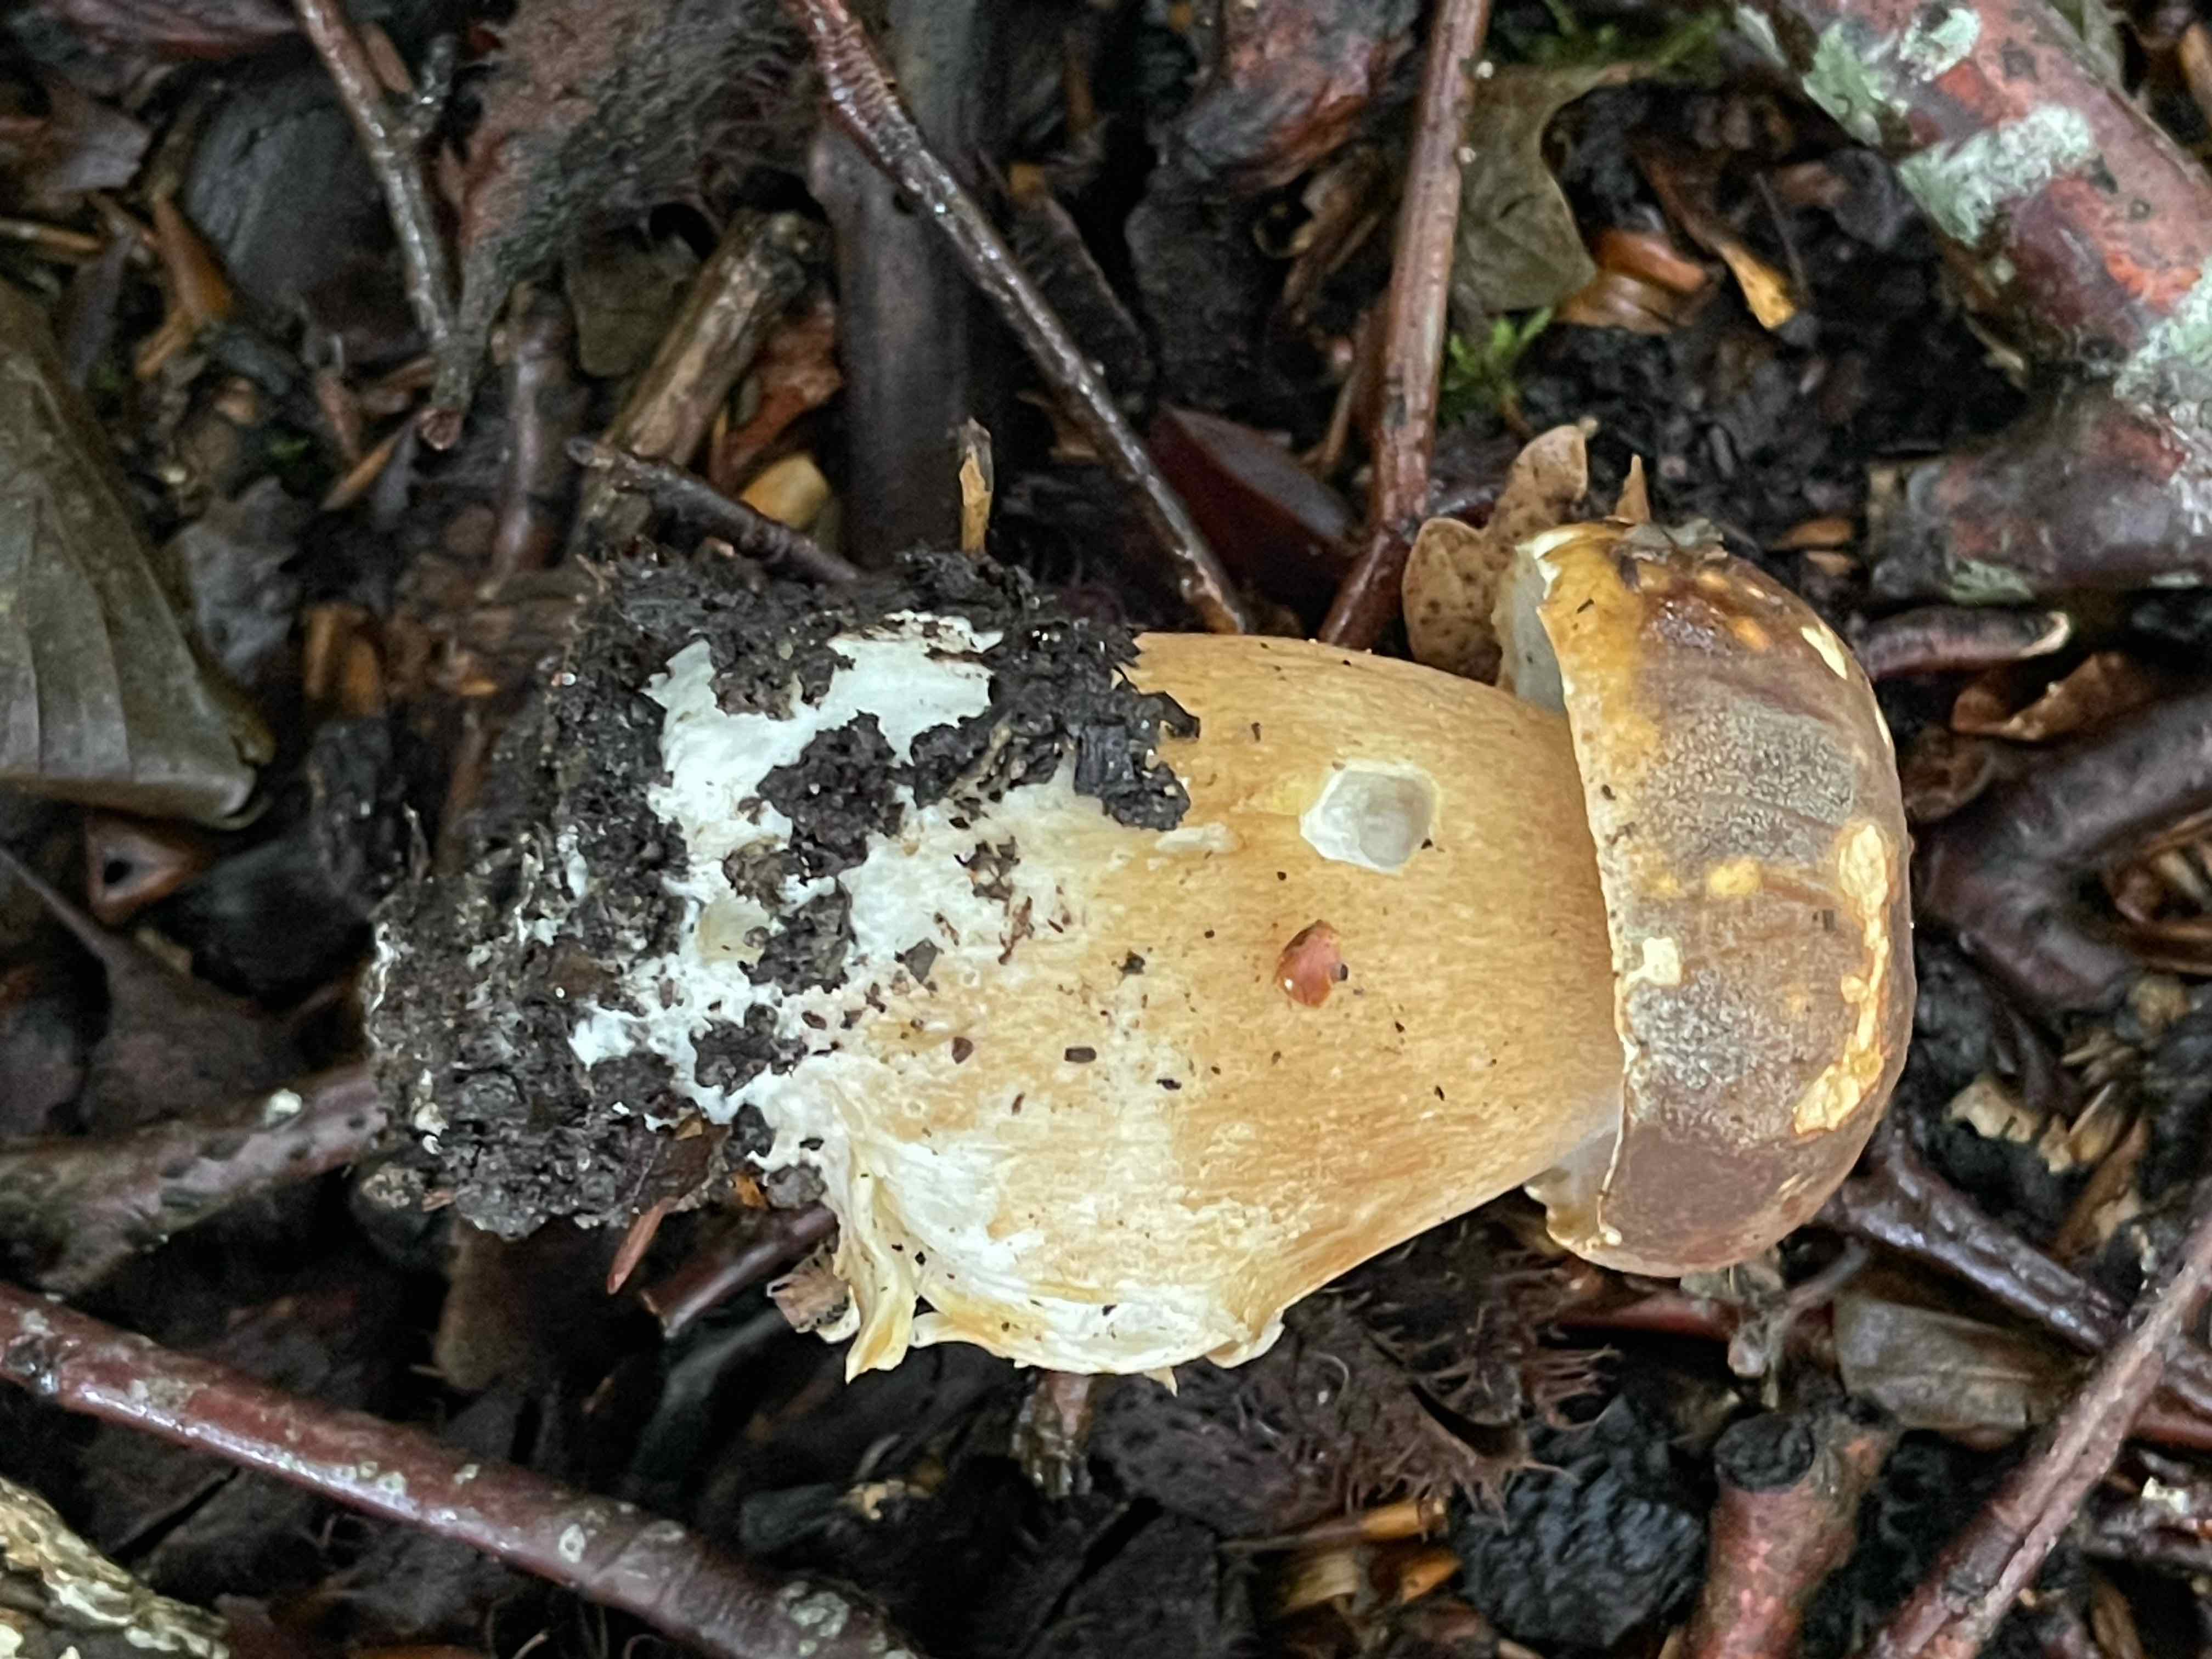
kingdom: Fungi
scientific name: Fungi
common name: bronze-rørhat
